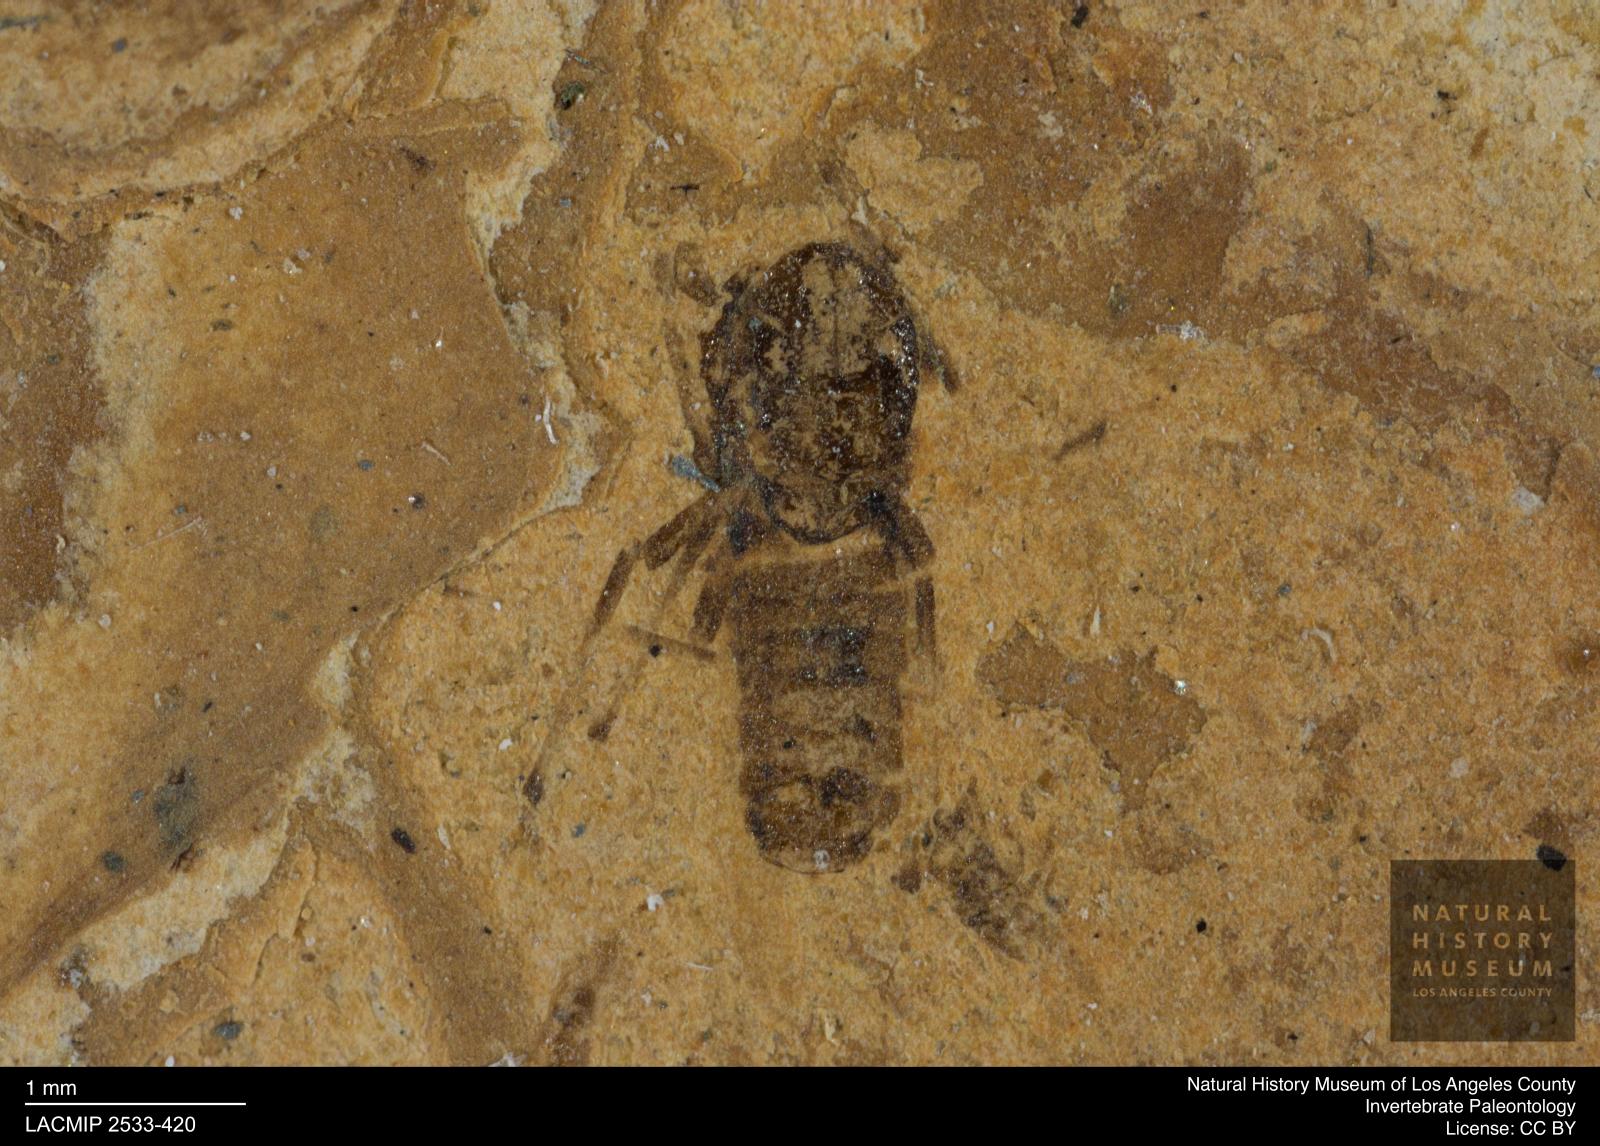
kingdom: Animalia
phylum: Arthropoda
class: Insecta
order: Diptera
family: Chironomidae
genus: Tanypus
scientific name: Tanypus fuscus
